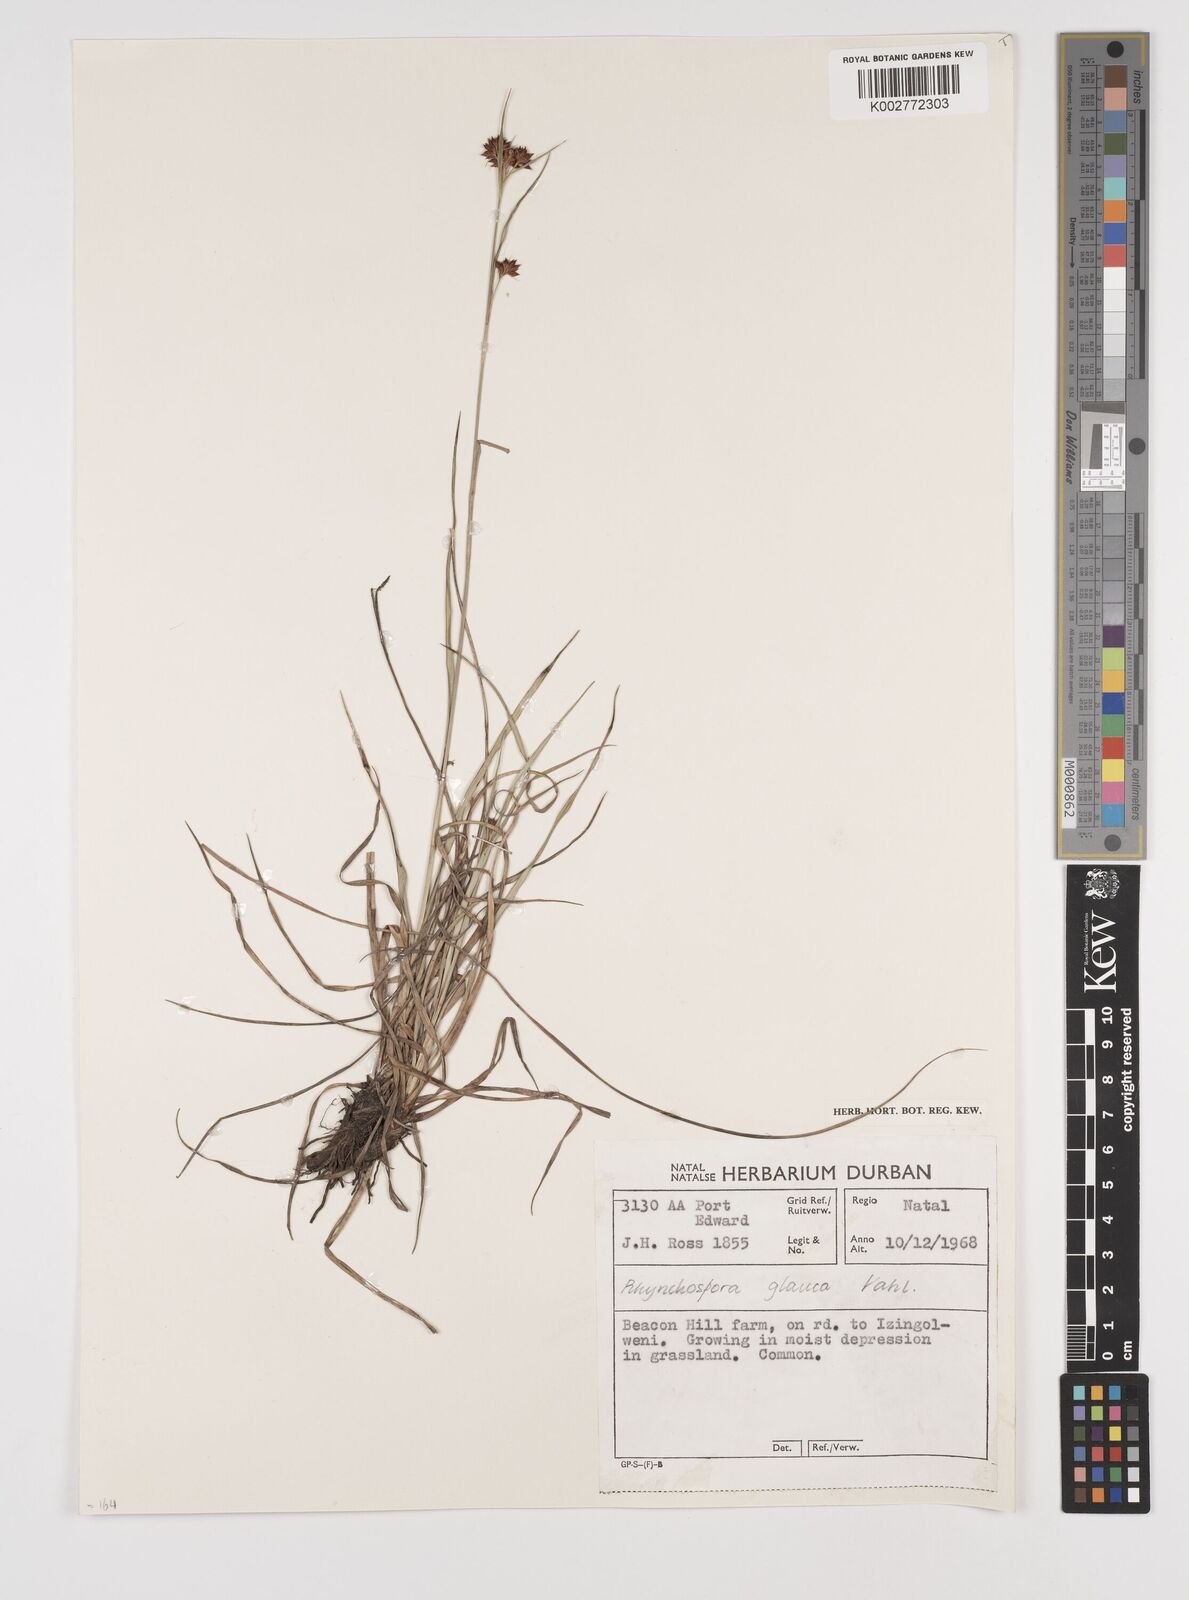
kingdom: Plantae
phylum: Tracheophyta
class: Liliopsida
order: Poales
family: Cyperaceae
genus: Rhynchospora
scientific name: Rhynchospora rugosa
